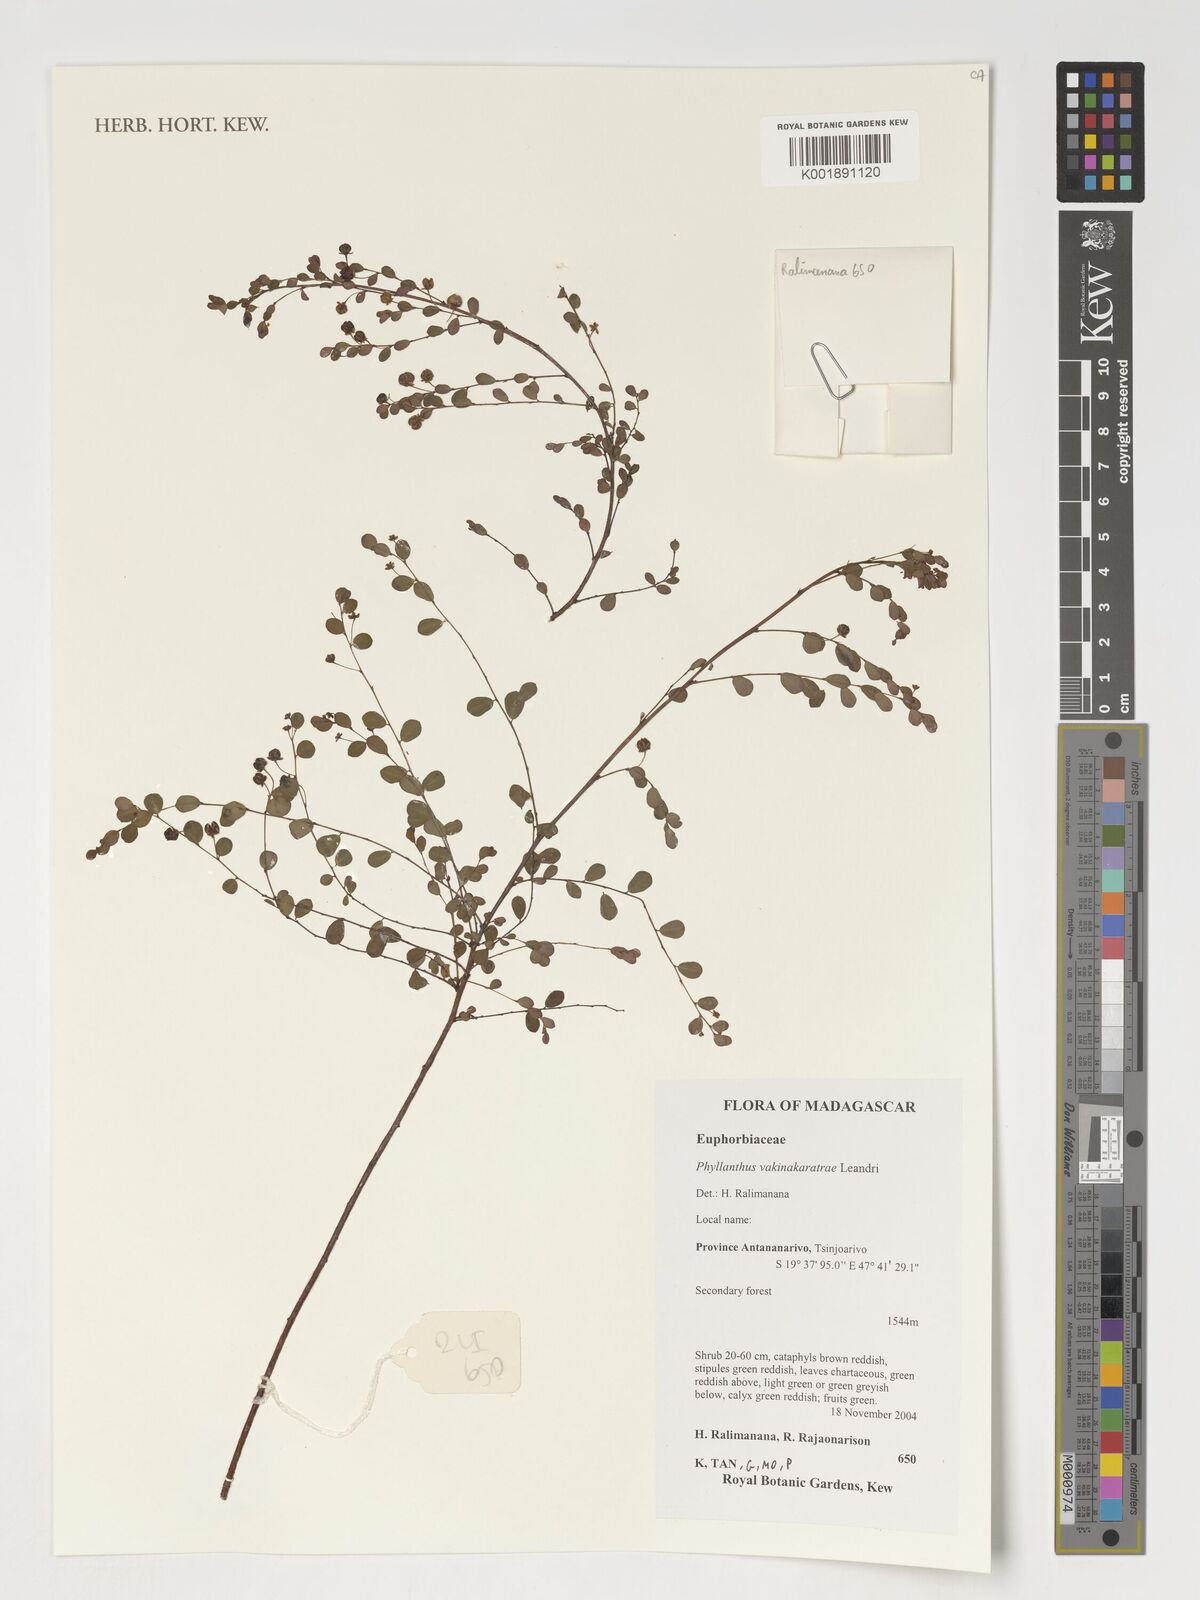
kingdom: Plantae
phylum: Tracheophyta
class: Magnoliopsida
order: Malpighiales
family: Phyllanthaceae
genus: Phyllanthus
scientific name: Phyllanthus vakinankaratrae
